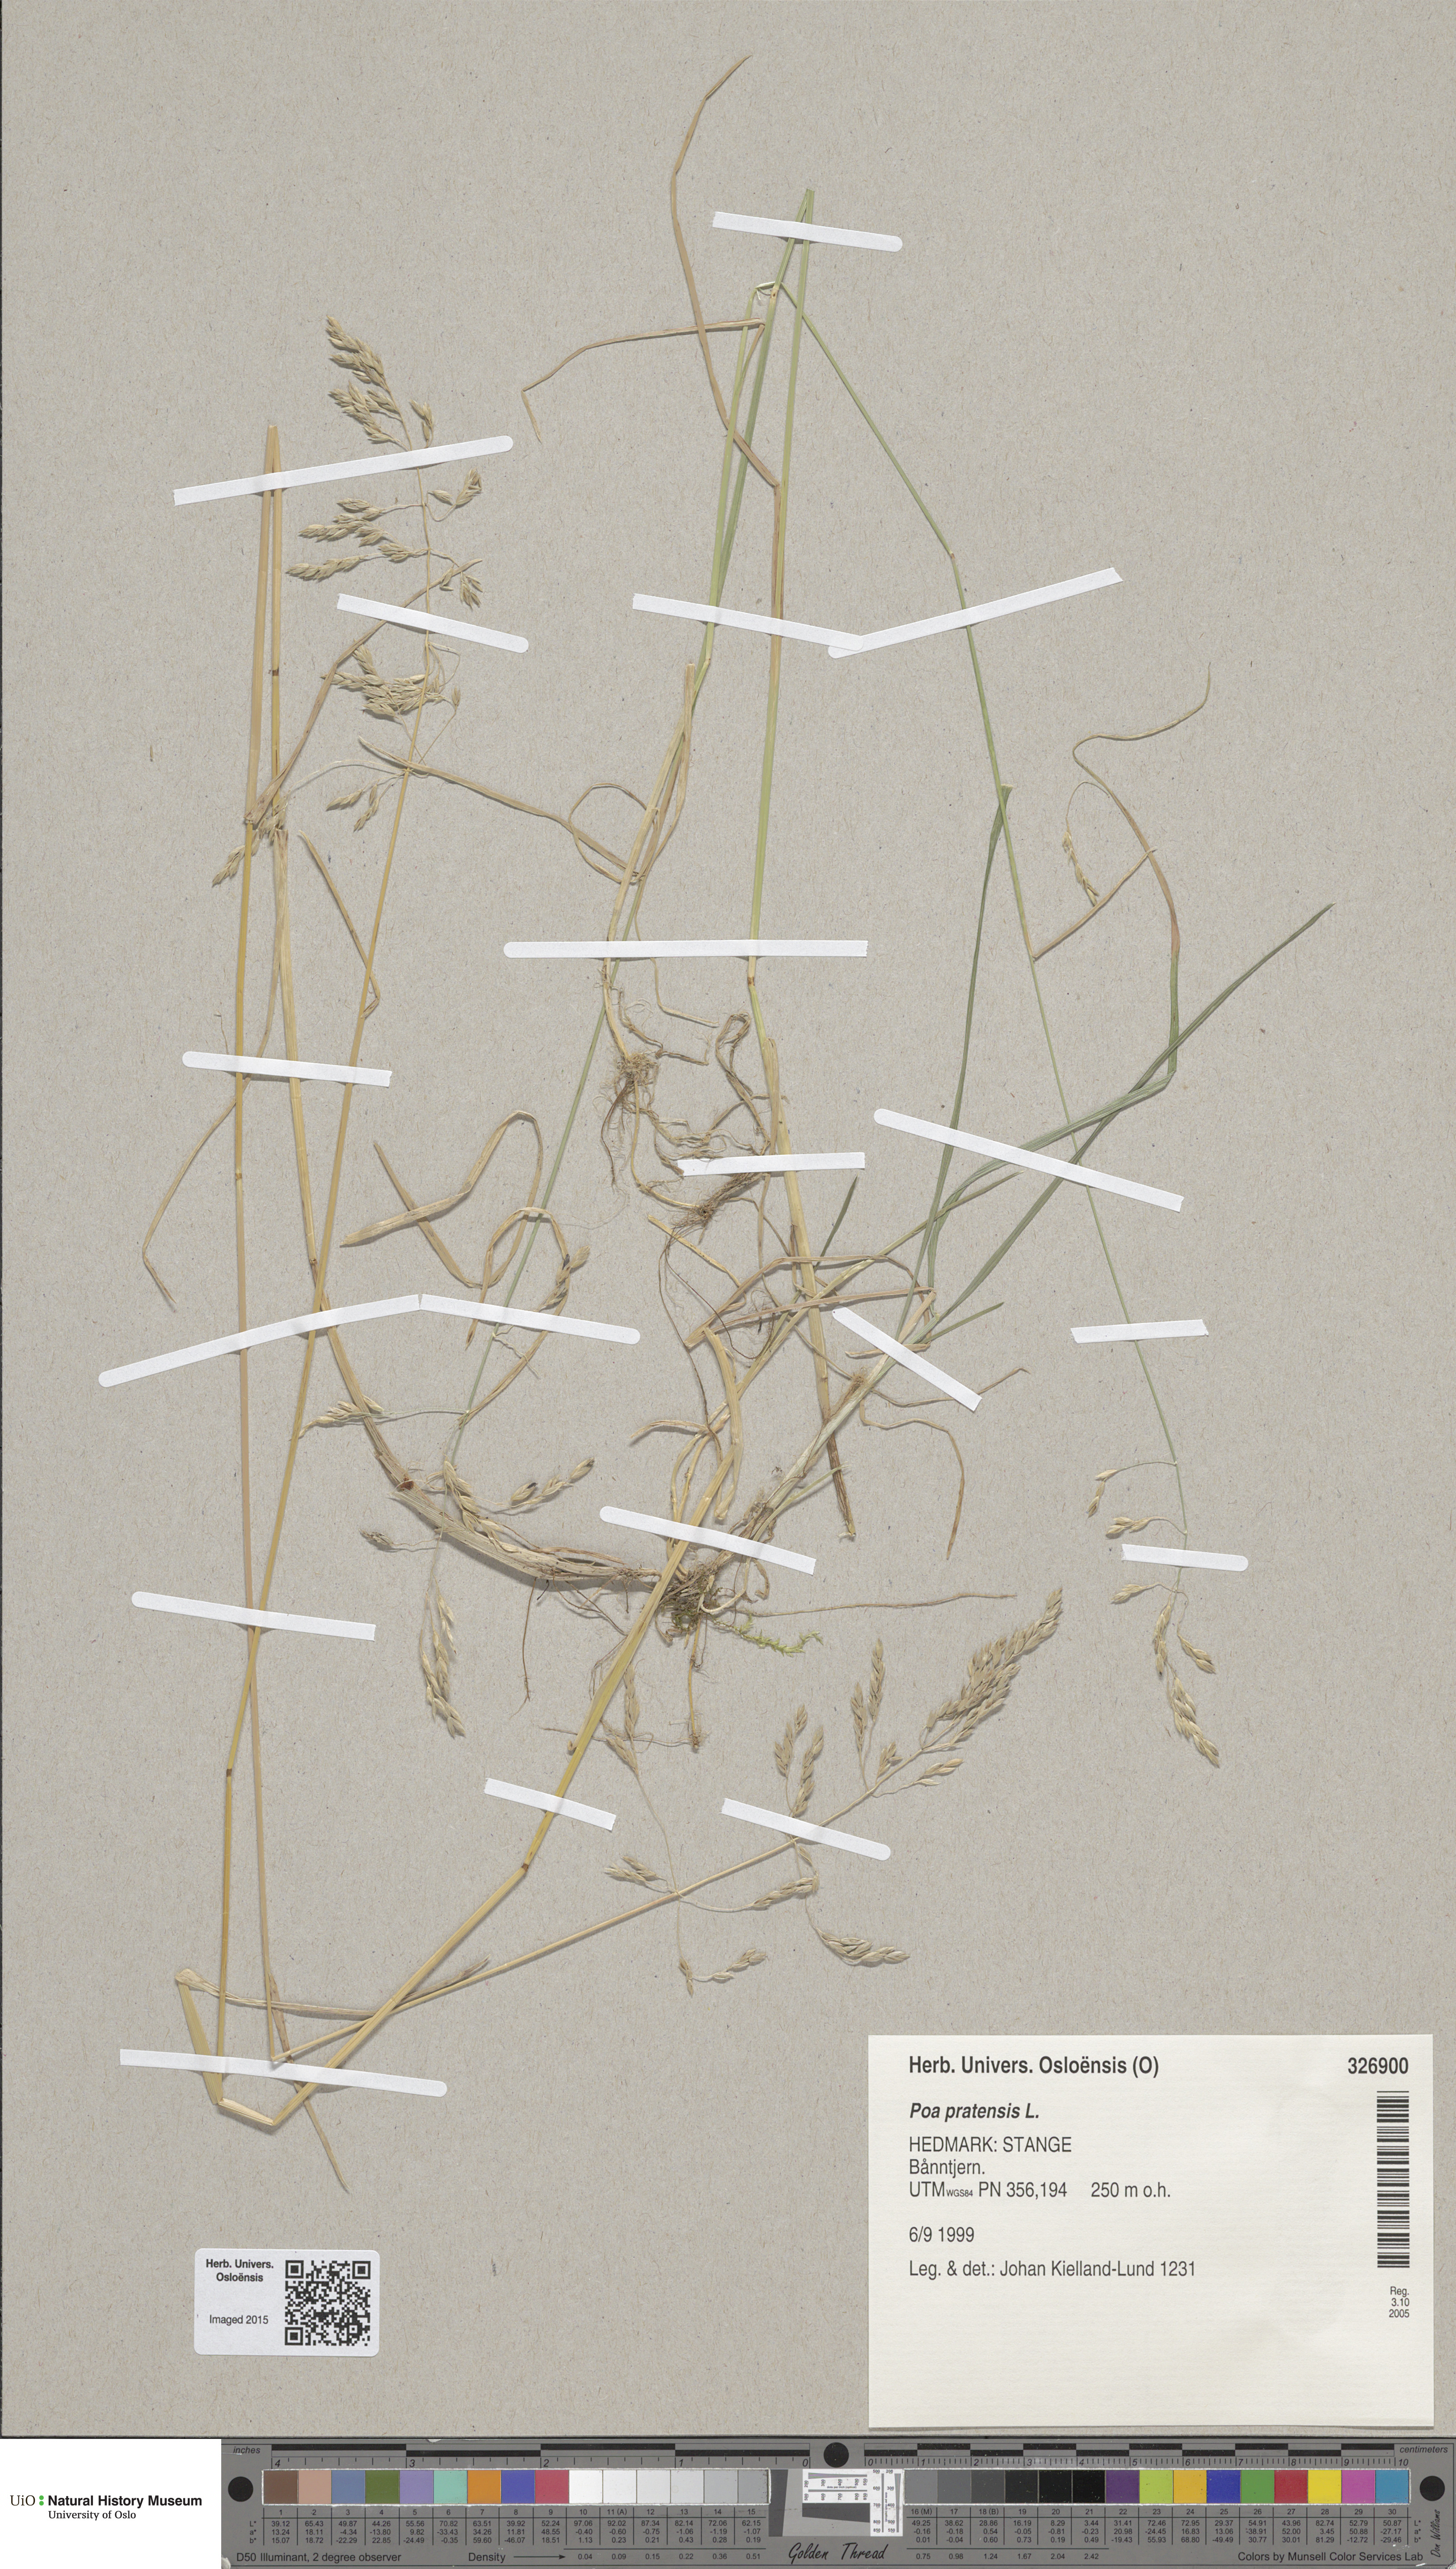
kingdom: Plantae
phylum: Tracheophyta
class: Liliopsida
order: Poales
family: Poaceae
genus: Poa
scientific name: Poa pratensis
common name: Kentucky bluegrass
